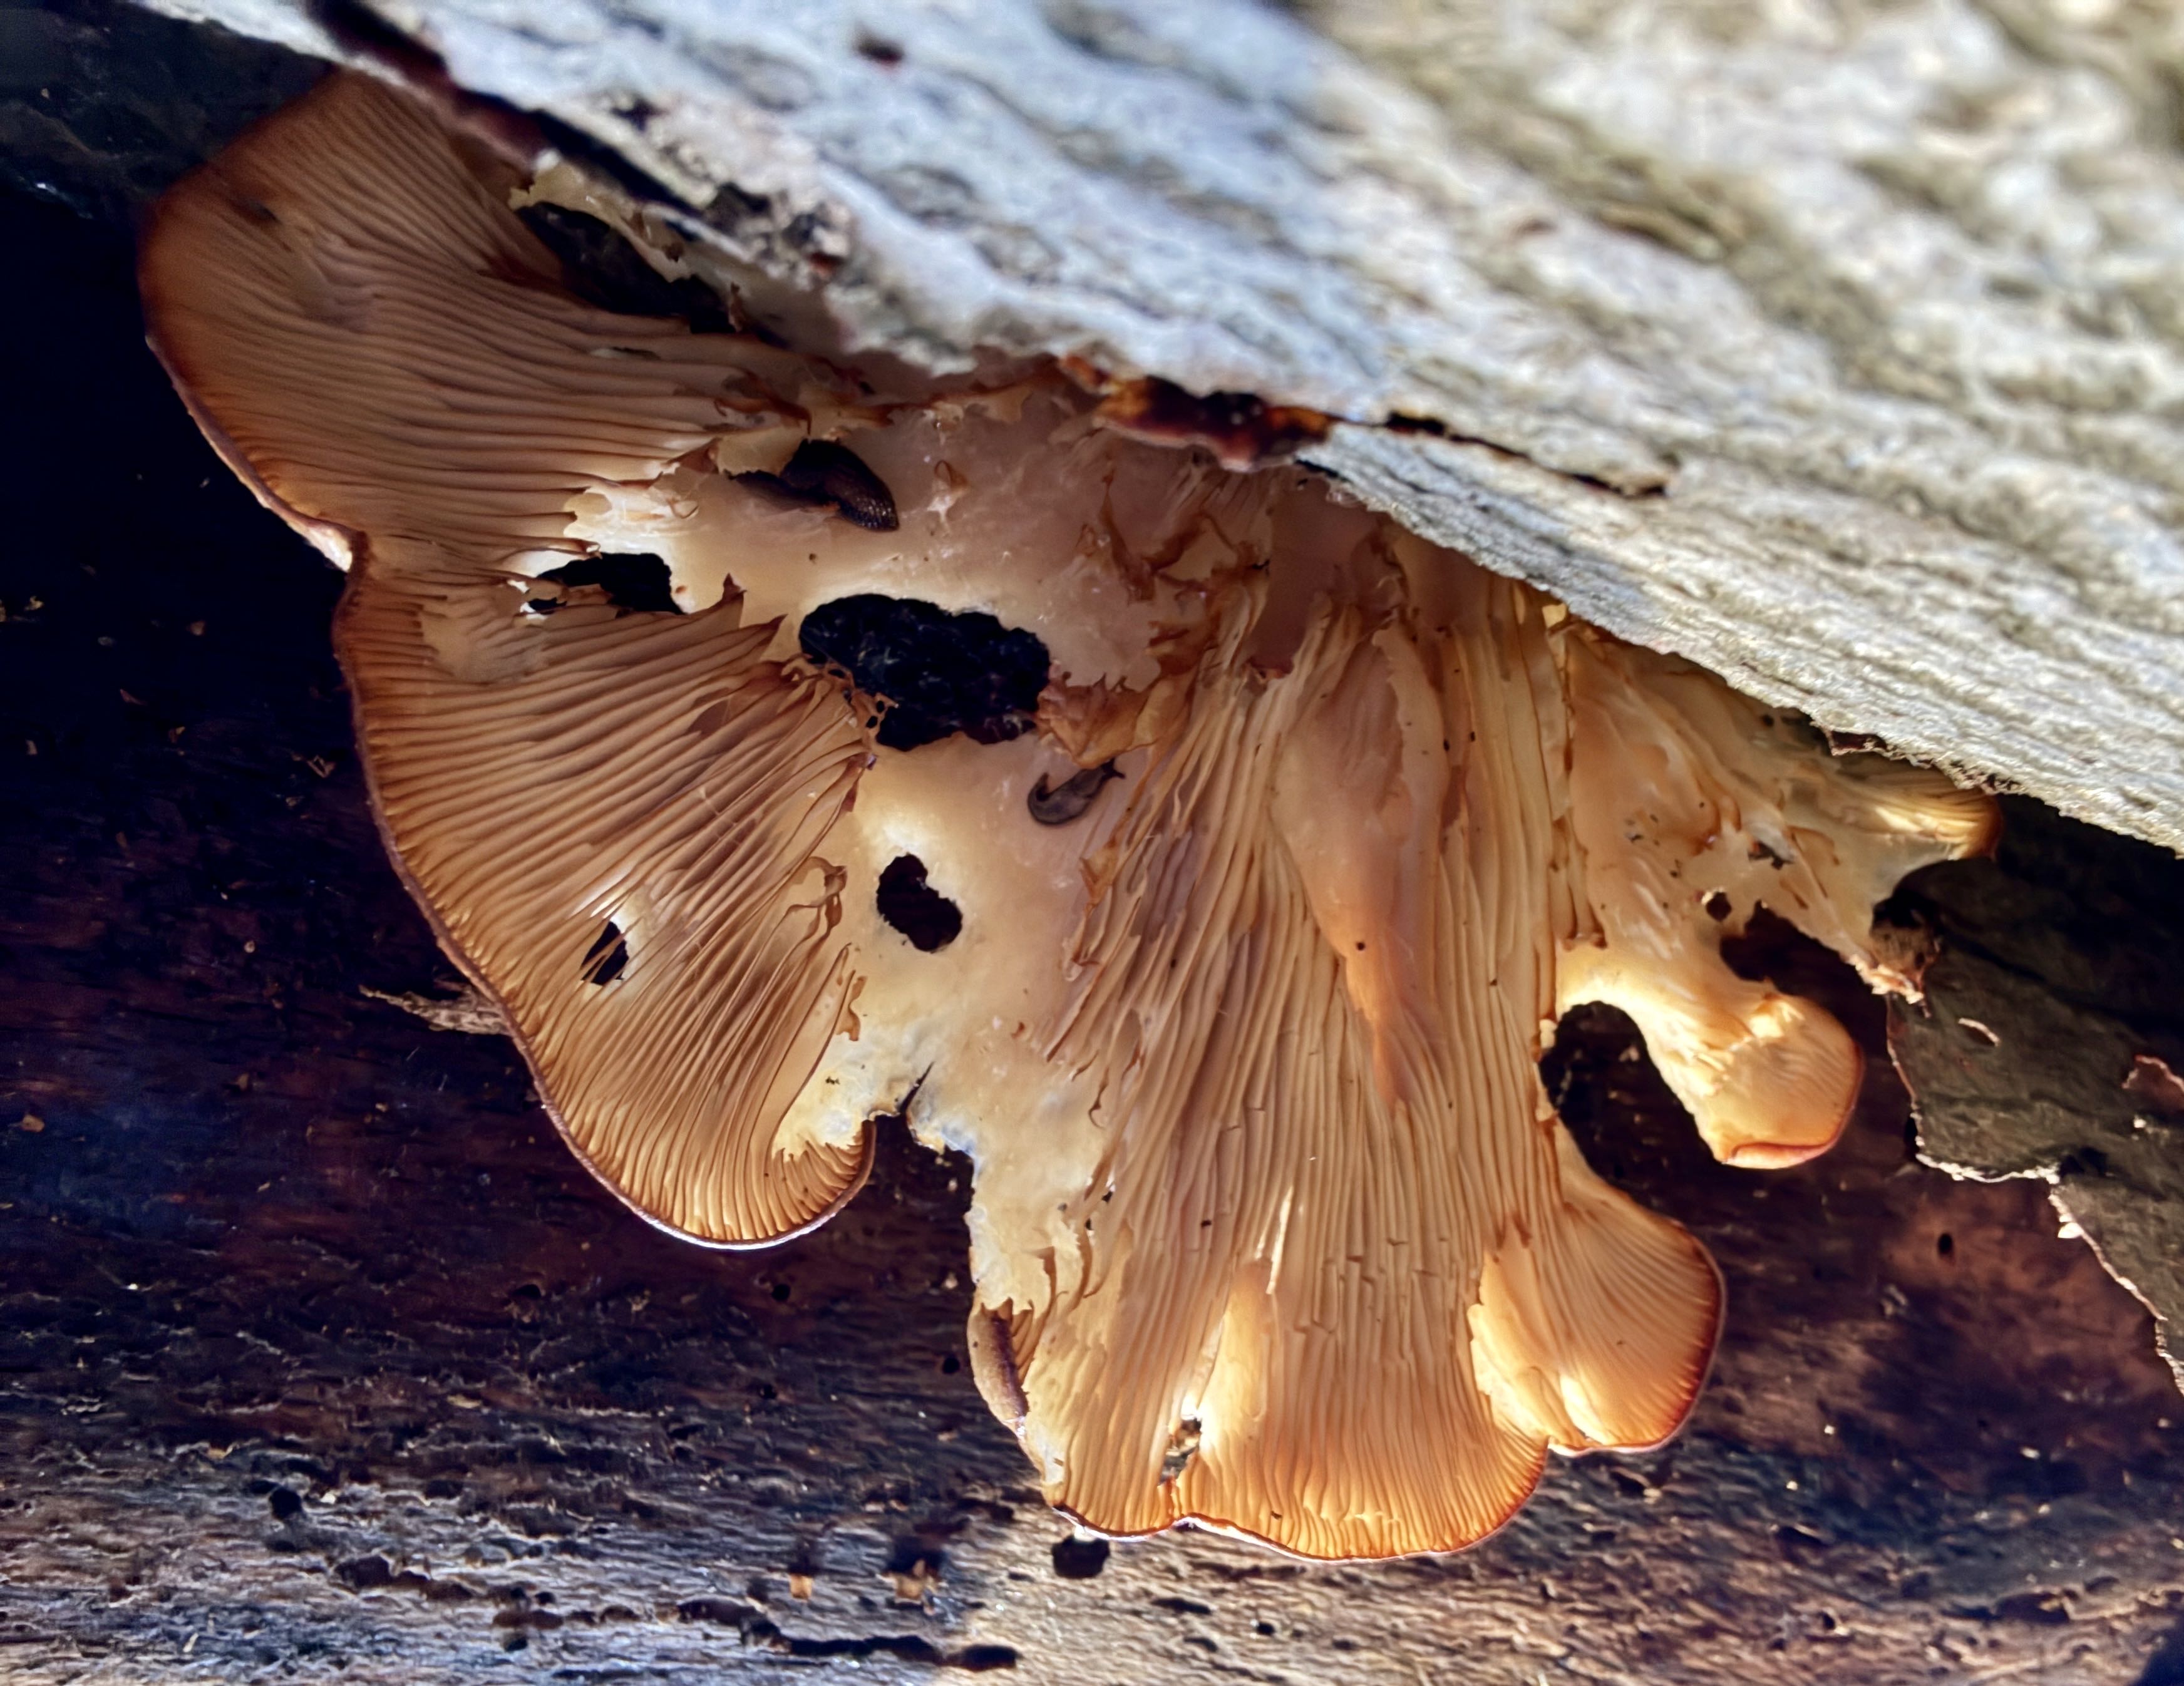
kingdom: Fungi
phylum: Basidiomycota
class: Agaricomycetes
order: Agaricales
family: Pleurotaceae
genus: Pleurotus
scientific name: Pleurotus ostreatus
